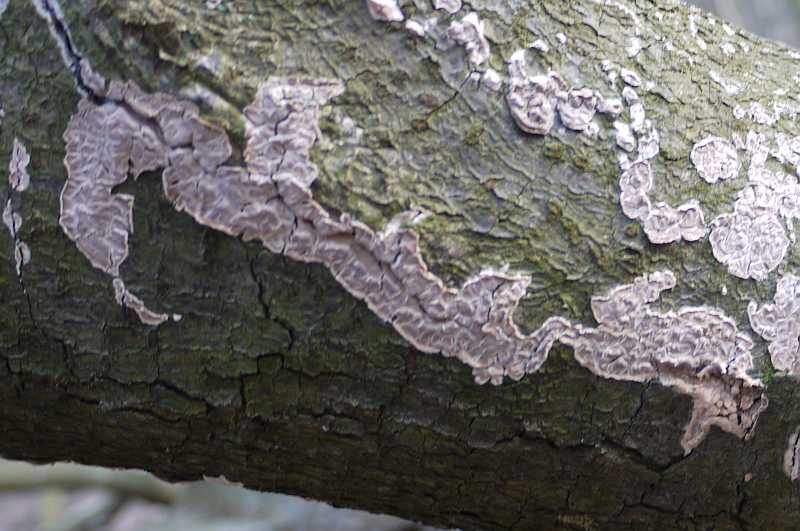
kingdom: Fungi
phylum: Basidiomycota
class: Agaricomycetes
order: Agaricales
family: Physalacriaceae
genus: Cylindrobasidium
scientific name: Cylindrobasidium evolvens
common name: sprækkehinde
